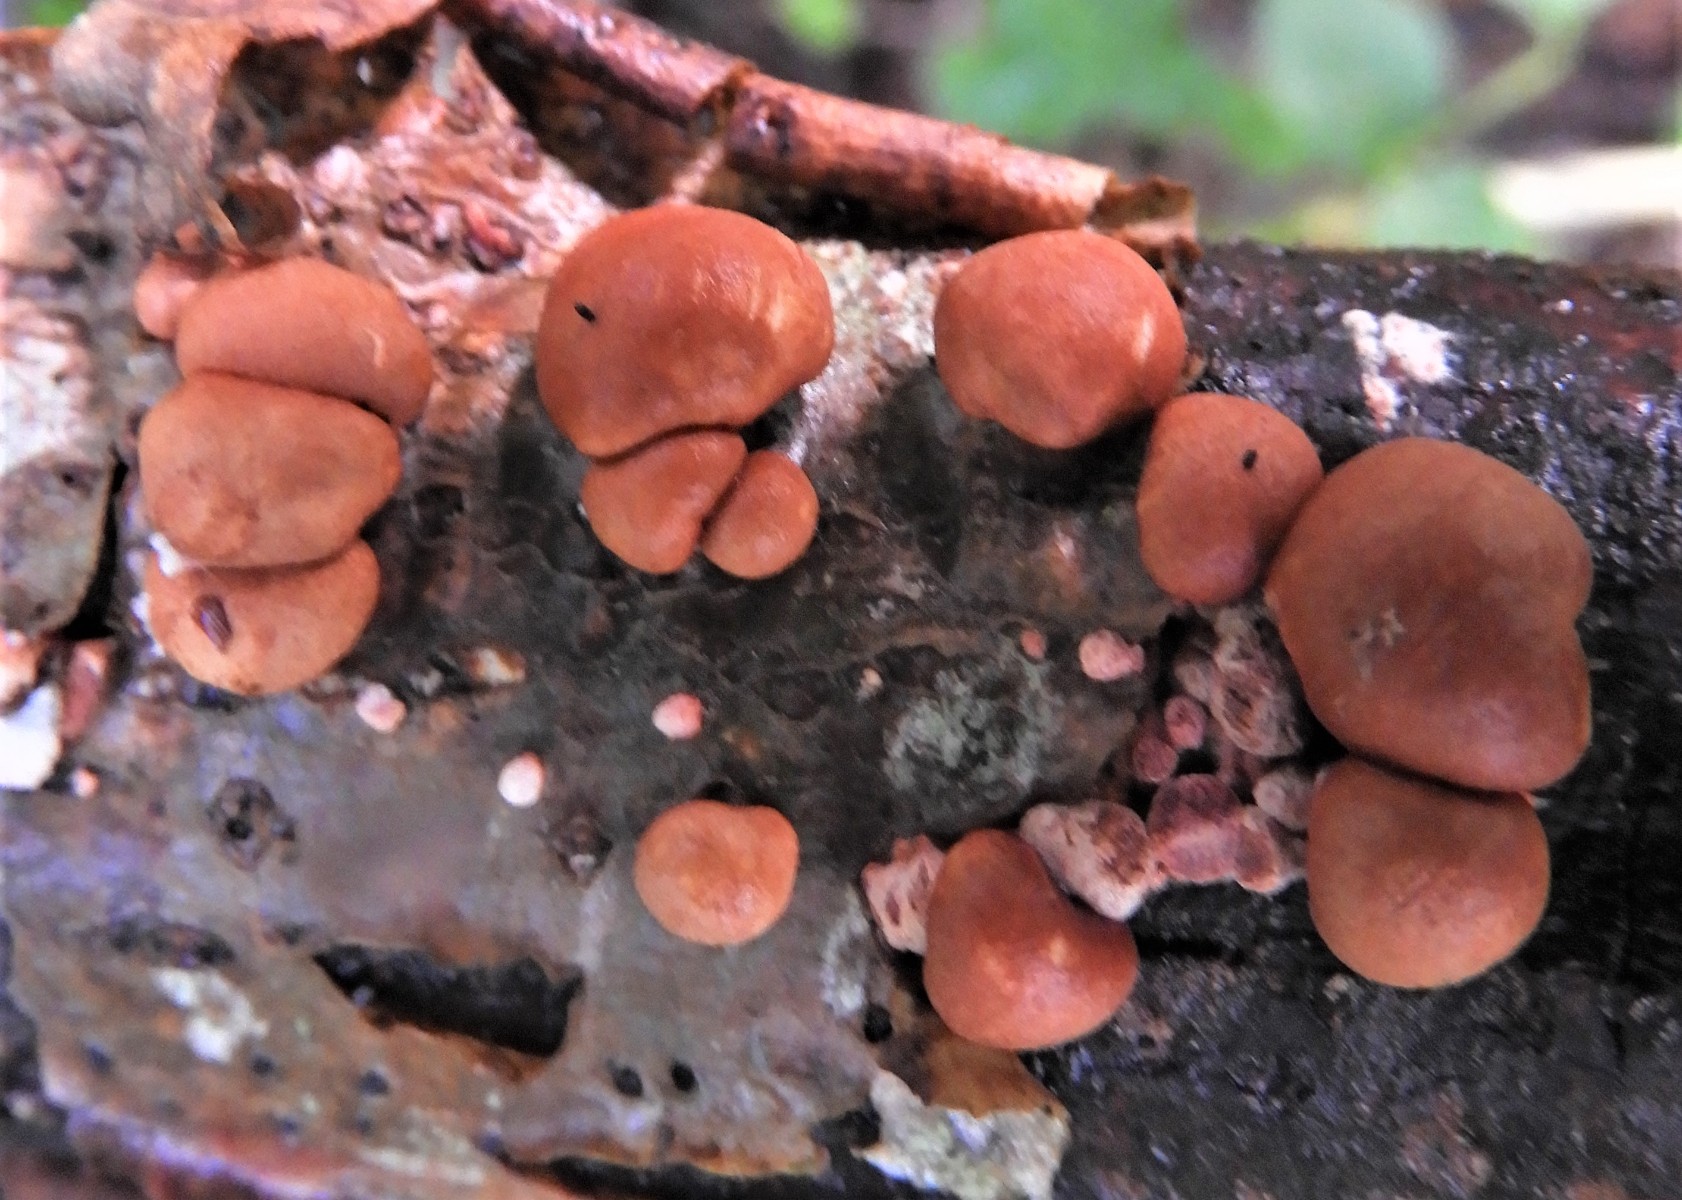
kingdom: Fungi
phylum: Ascomycota
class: Sordariomycetes
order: Hypocreales
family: Hypocreaceae
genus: Trichoderma
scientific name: Trichoderma europaeum
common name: rosabrun kødkerne
